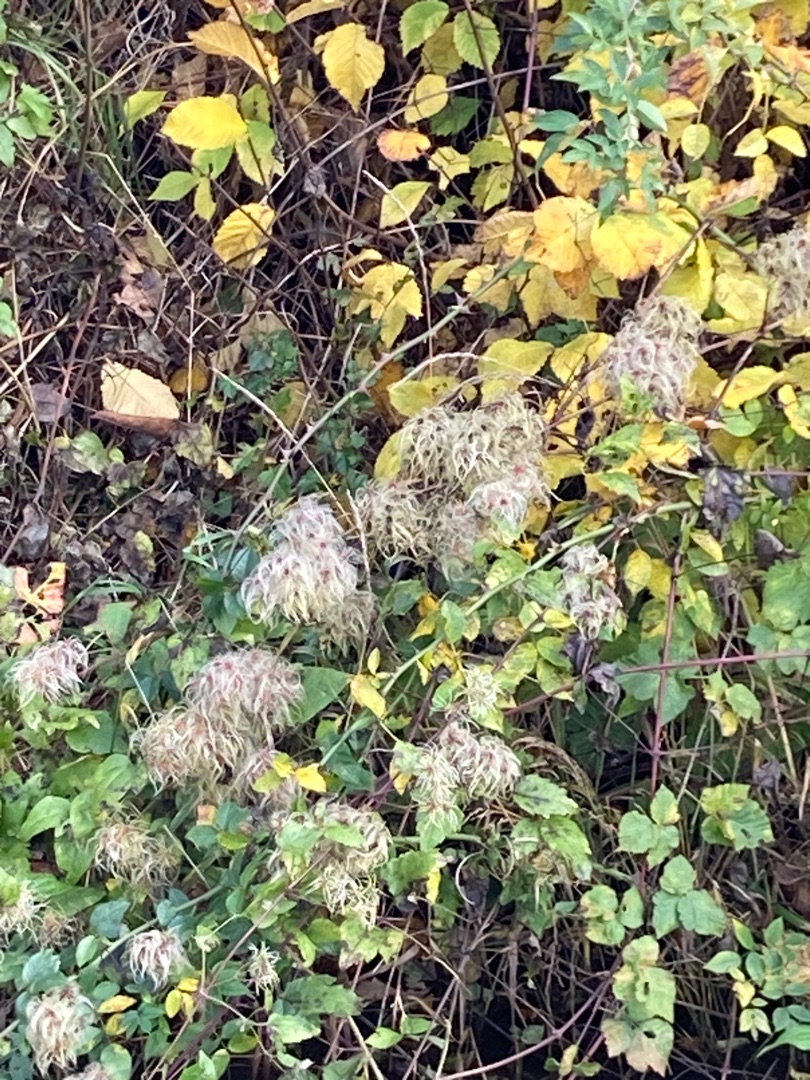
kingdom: Plantae
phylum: Tracheophyta
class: Magnoliopsida
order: Ranunculales
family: Ranunculaceae
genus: Clematis
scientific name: Clematis vitalba
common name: Skovranke
